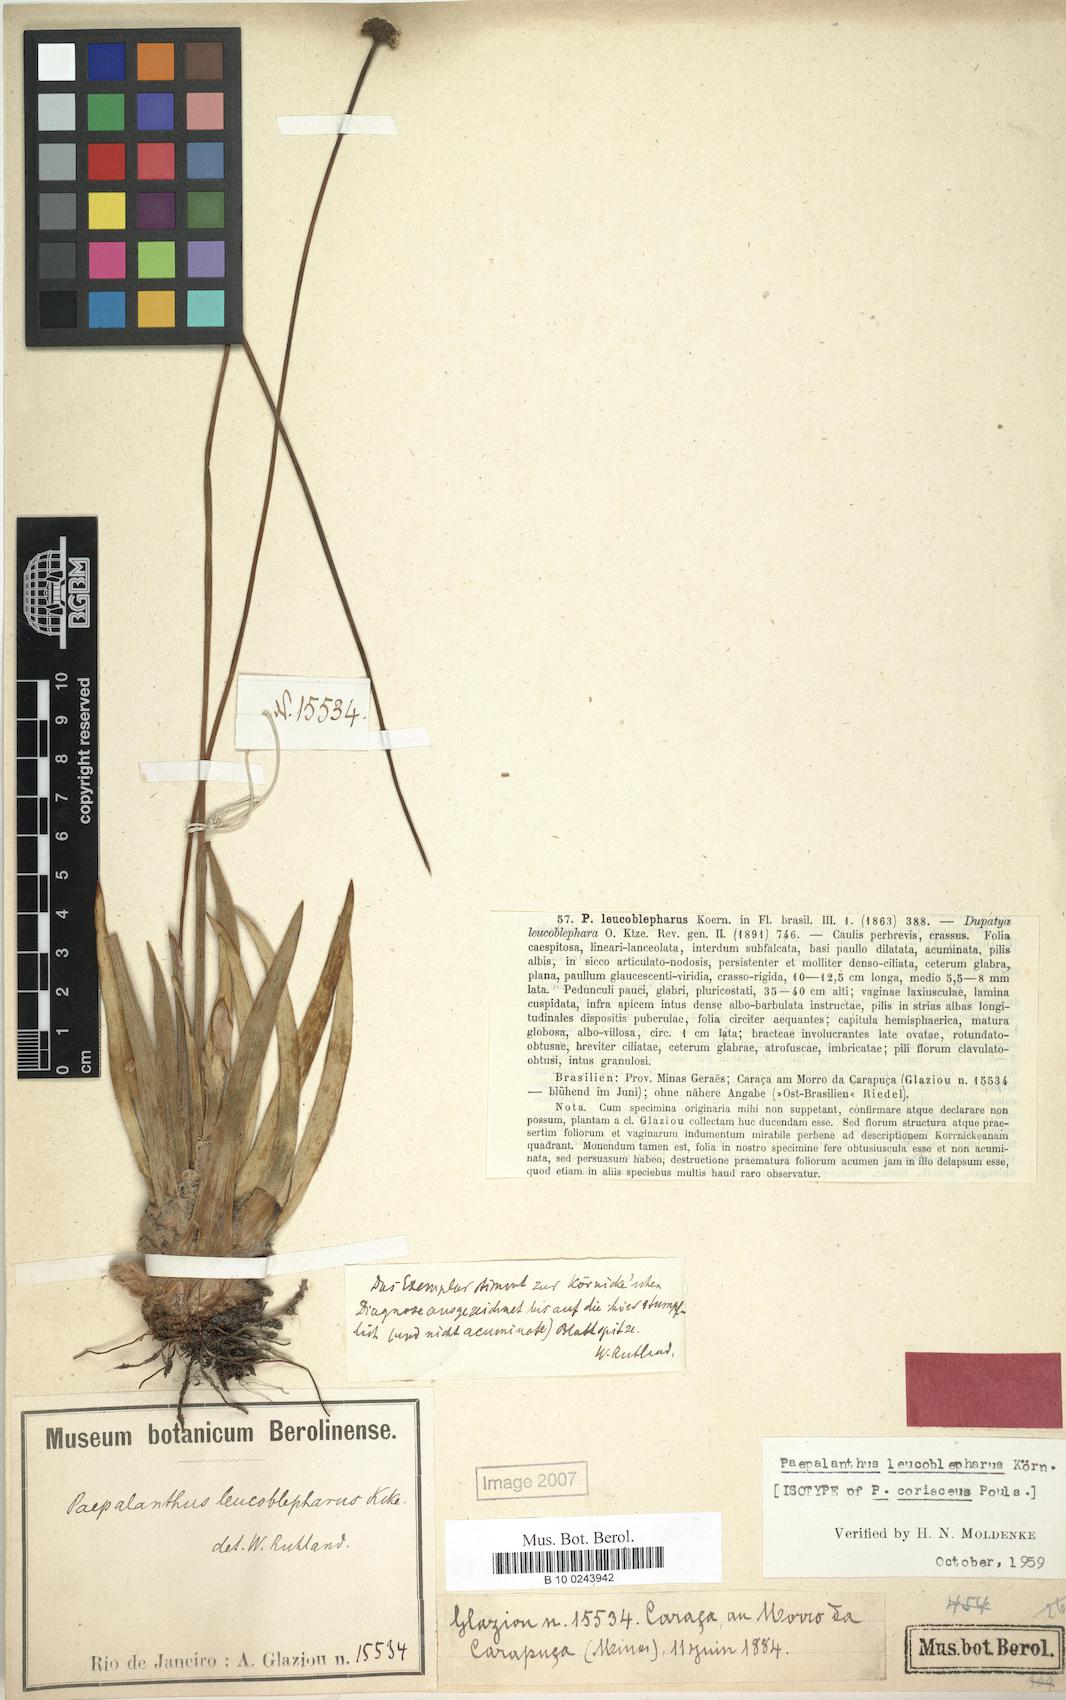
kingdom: Plantae
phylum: Tracheophyta
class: Liliopsida
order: Poales
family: Eriocaulaceae
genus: Paepalanthus
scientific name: Paepalanthus leucoblepharus
